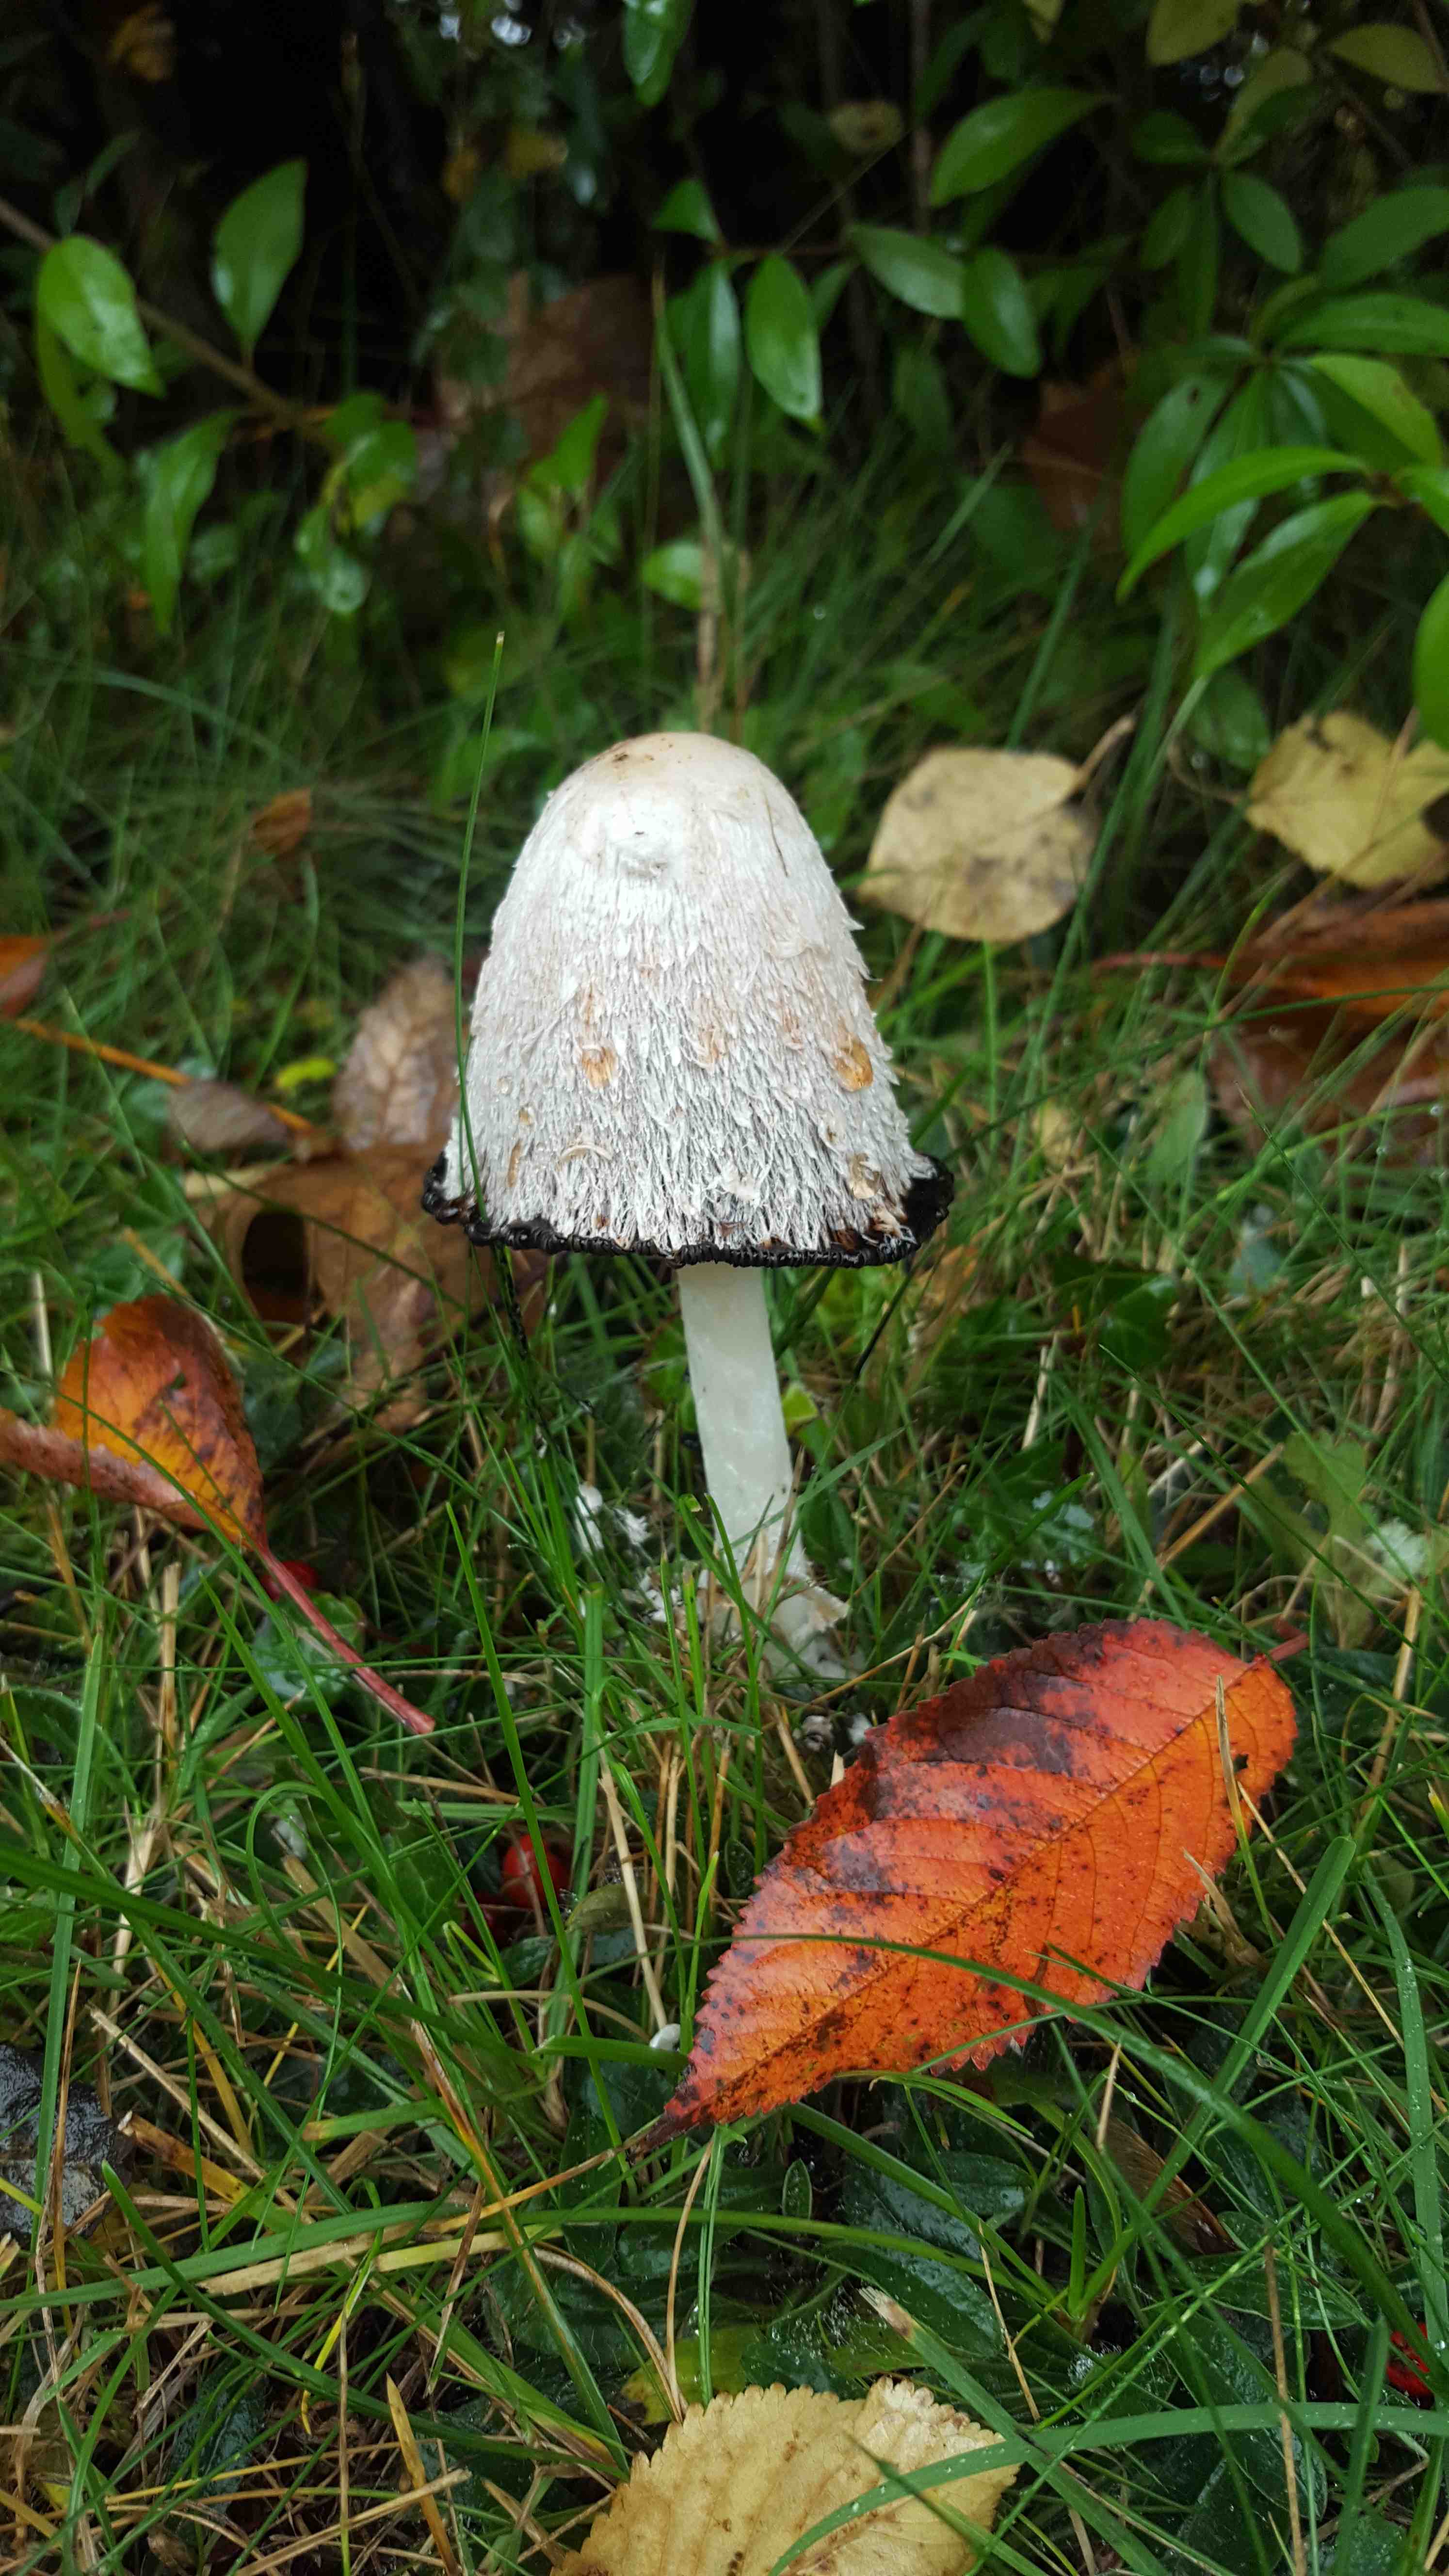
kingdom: Fungi
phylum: Basidiomycota
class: Agaricomycetes
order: Agaricales
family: Agaricaceae
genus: Coprinus
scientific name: Coprinus comatus
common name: stor parykhat
